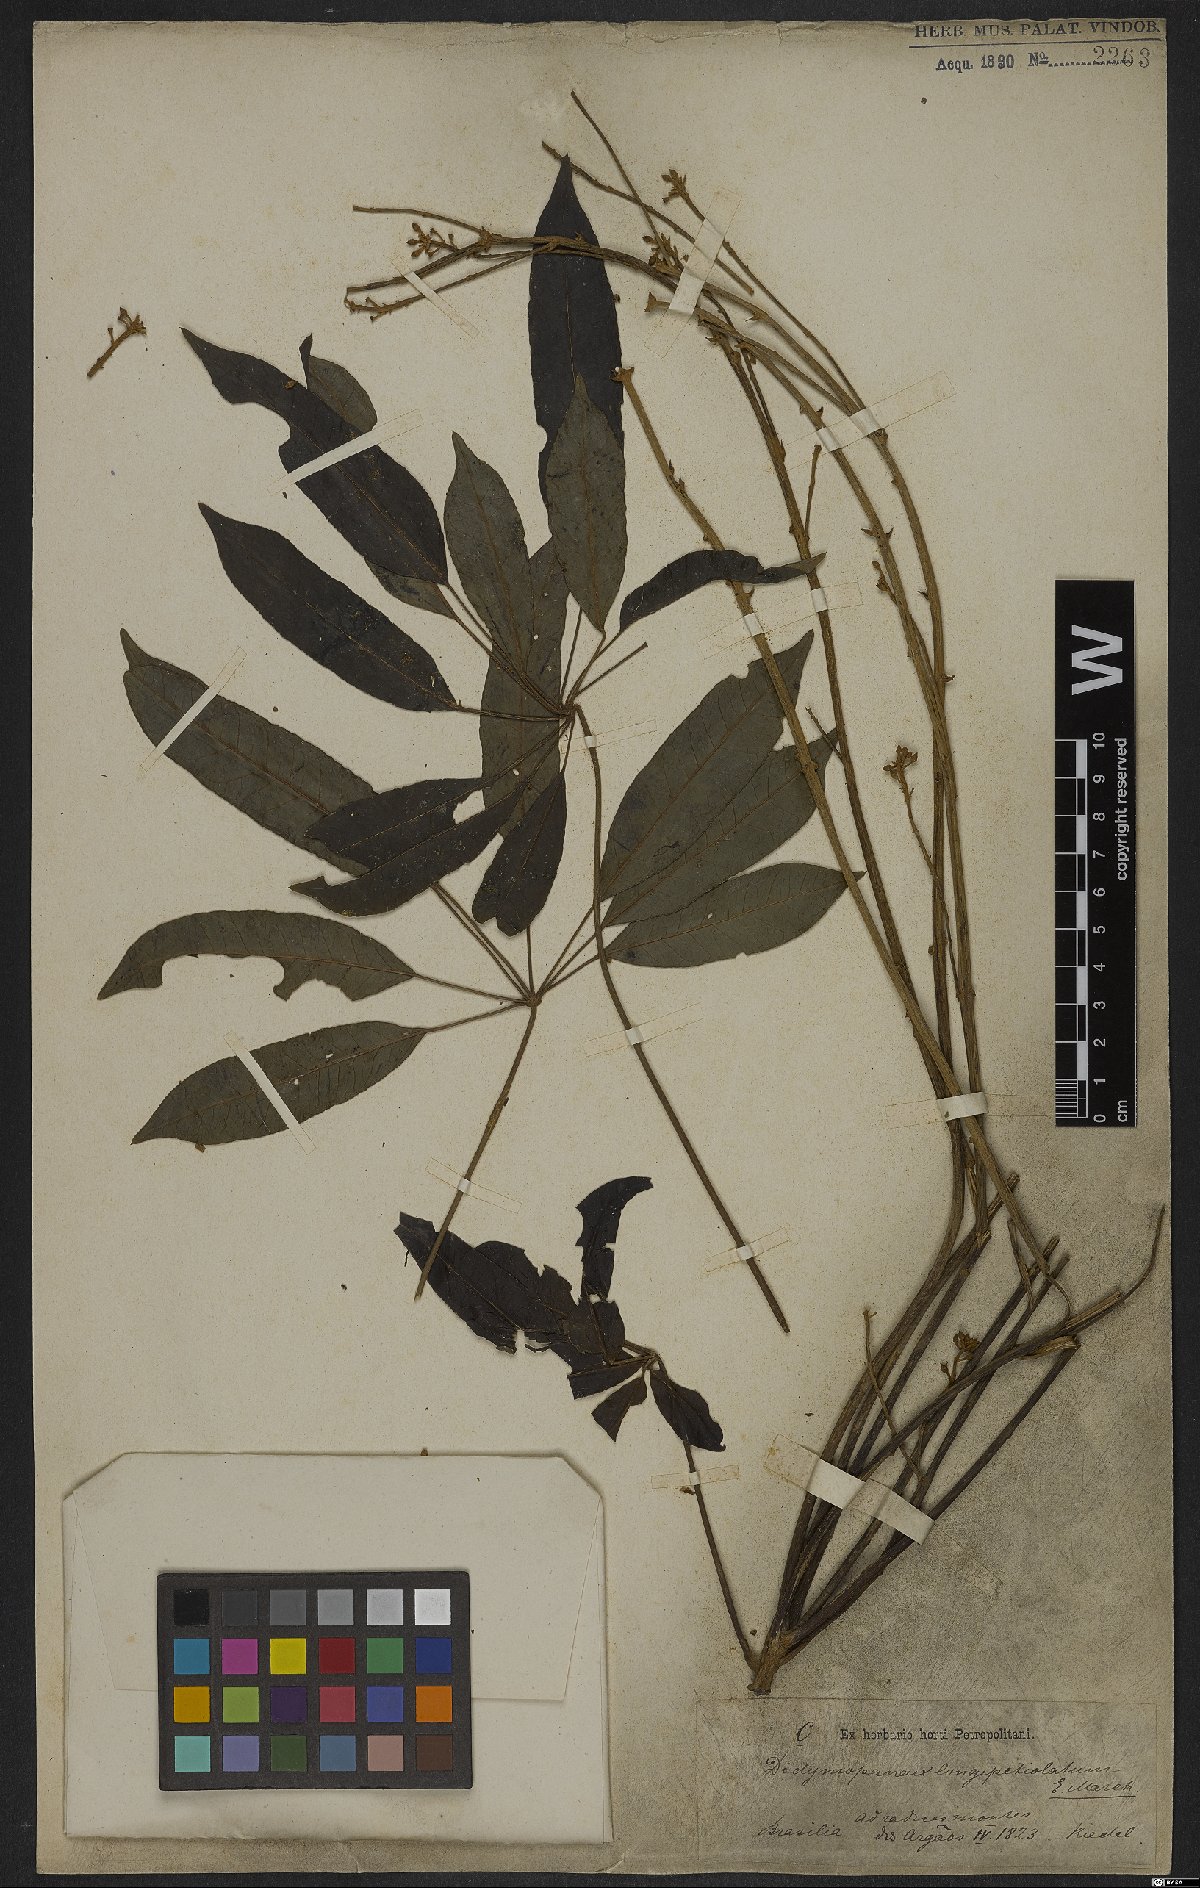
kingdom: Plantae
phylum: Tracheophyta
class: Magnoliopsida
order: Apiales
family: Araliaceae
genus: Didymopanax
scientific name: Didymopanax longepetiolatus
